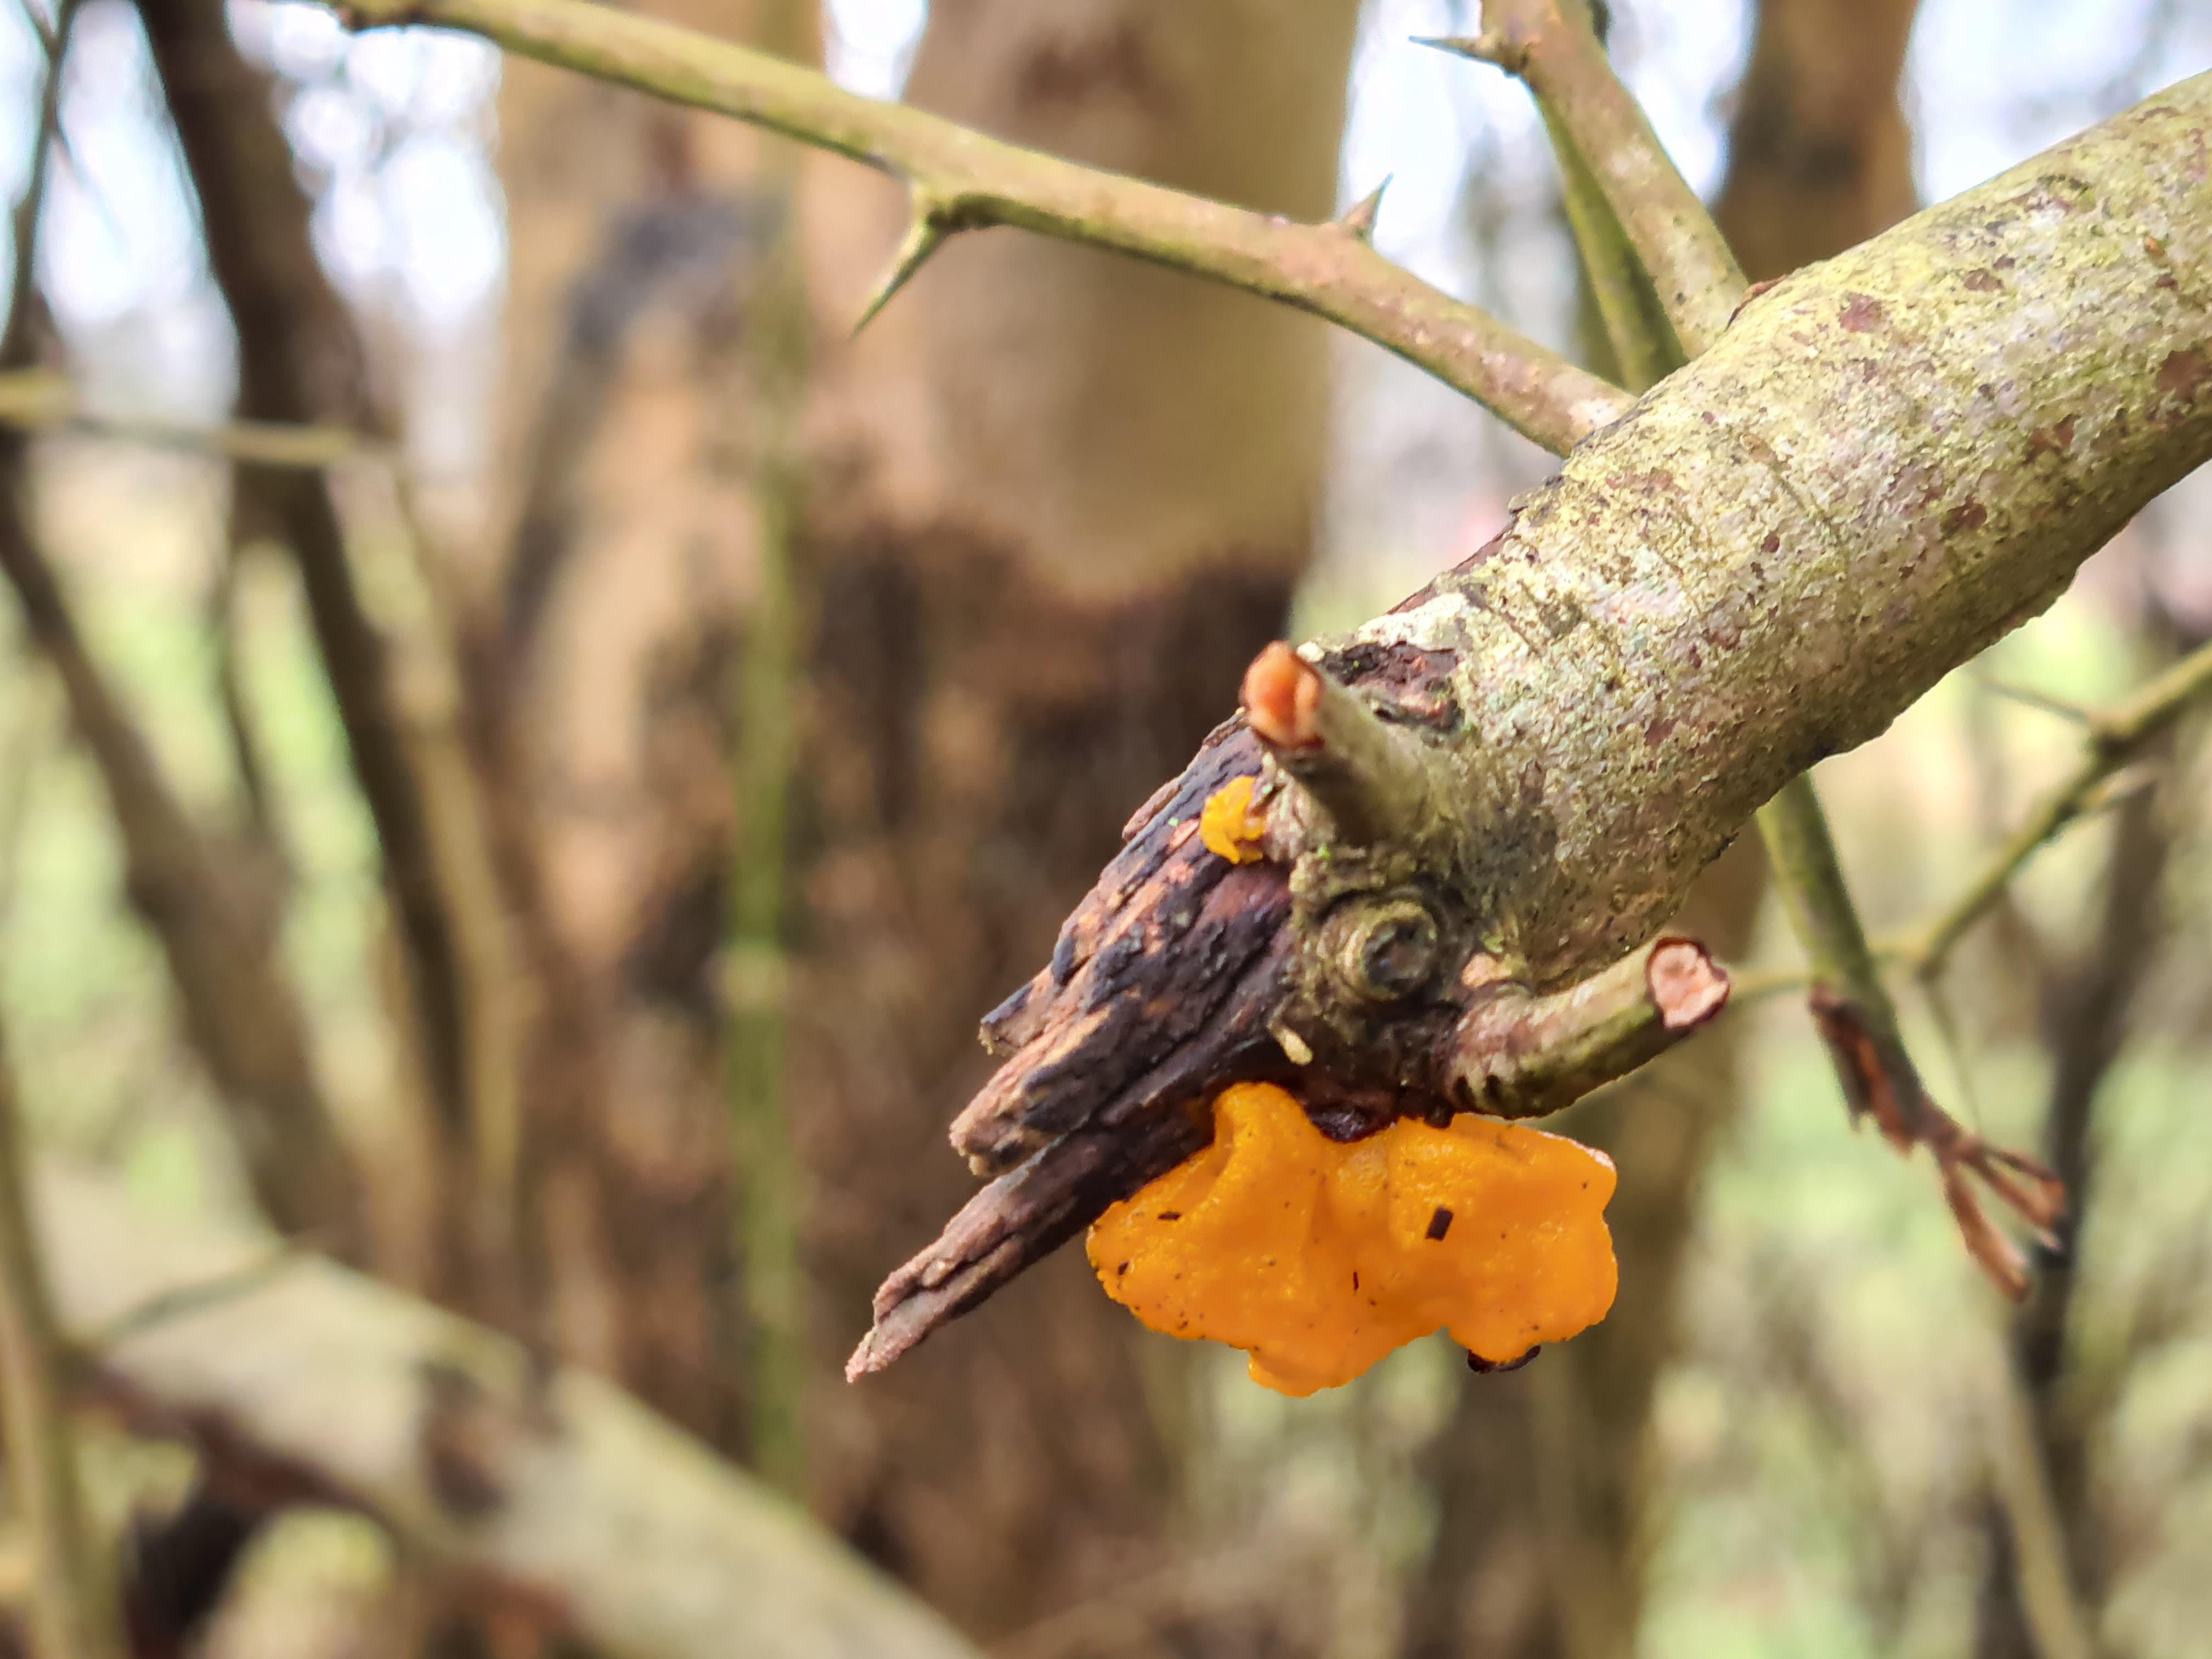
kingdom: Fungi
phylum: Basidiomycota
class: Tremellomycetes
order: Tremellales
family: Tremellaceae
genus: Tremella
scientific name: Tremella mesenterica
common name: gul bævresvamp
